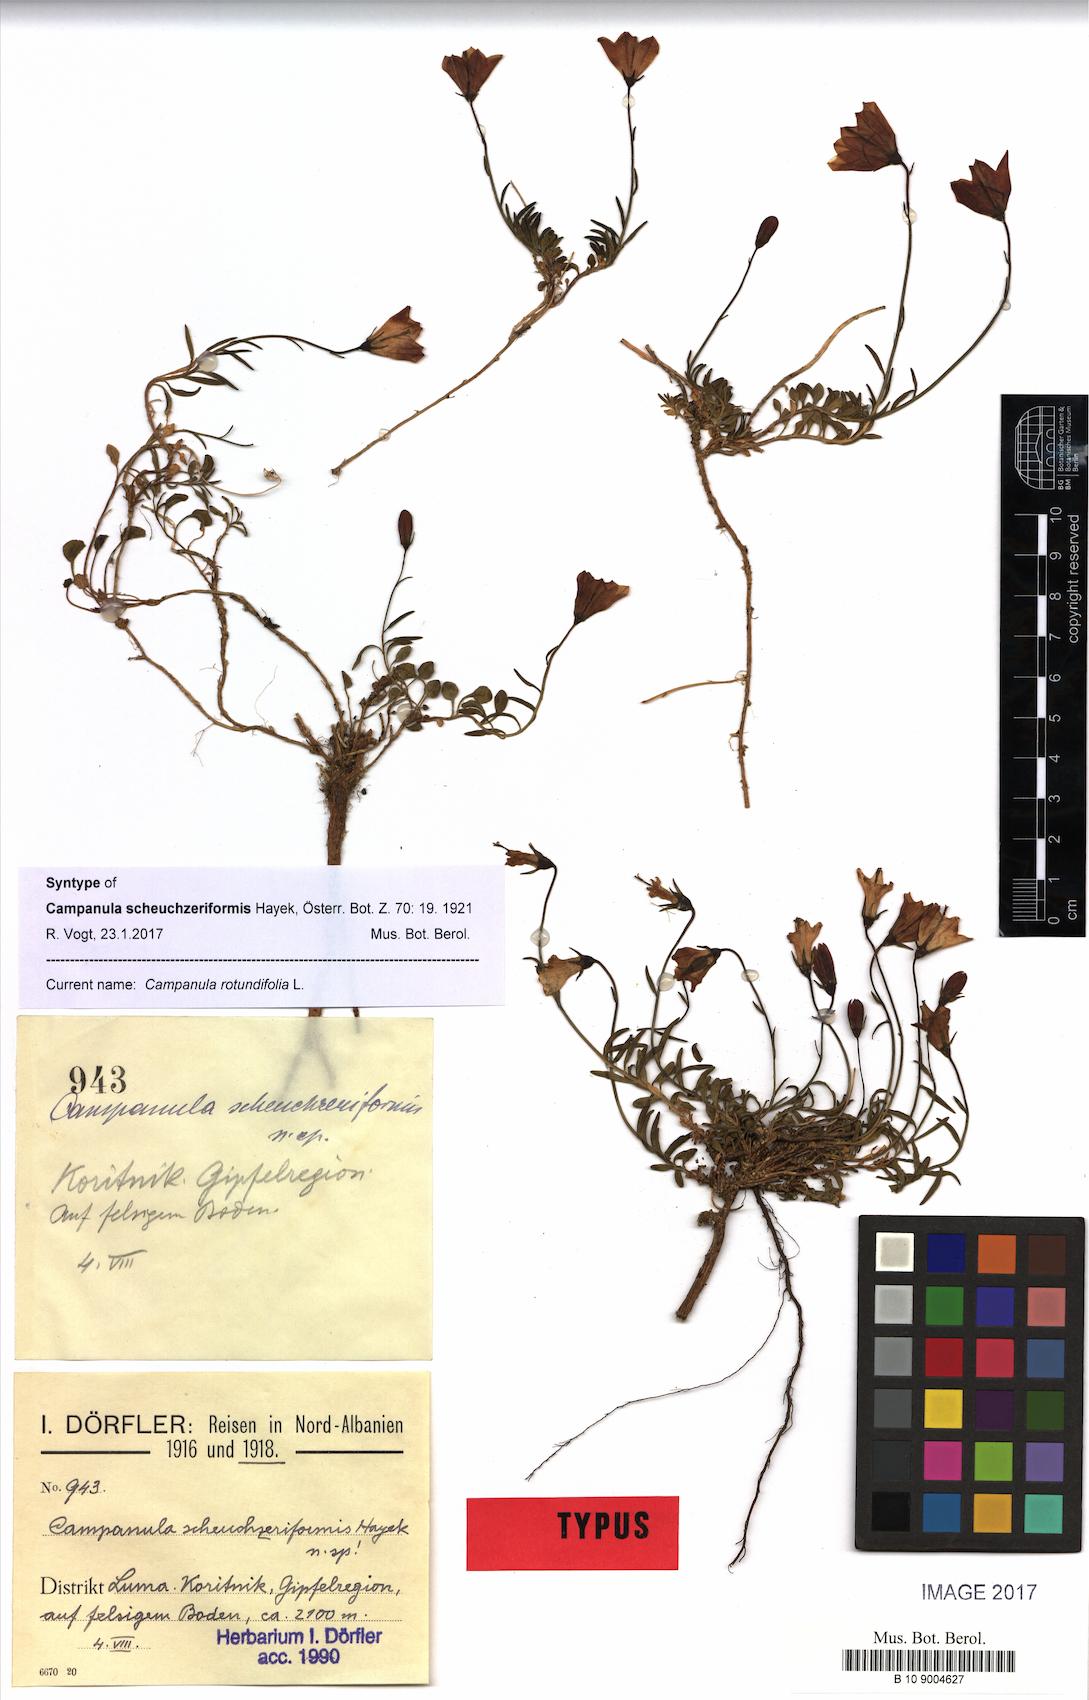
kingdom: Plantae
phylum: Tracheophyta
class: Magnoliopsida
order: Asterales
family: Campanulaceae
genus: Campanula
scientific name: Campanula rotundifolia
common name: Harebell
